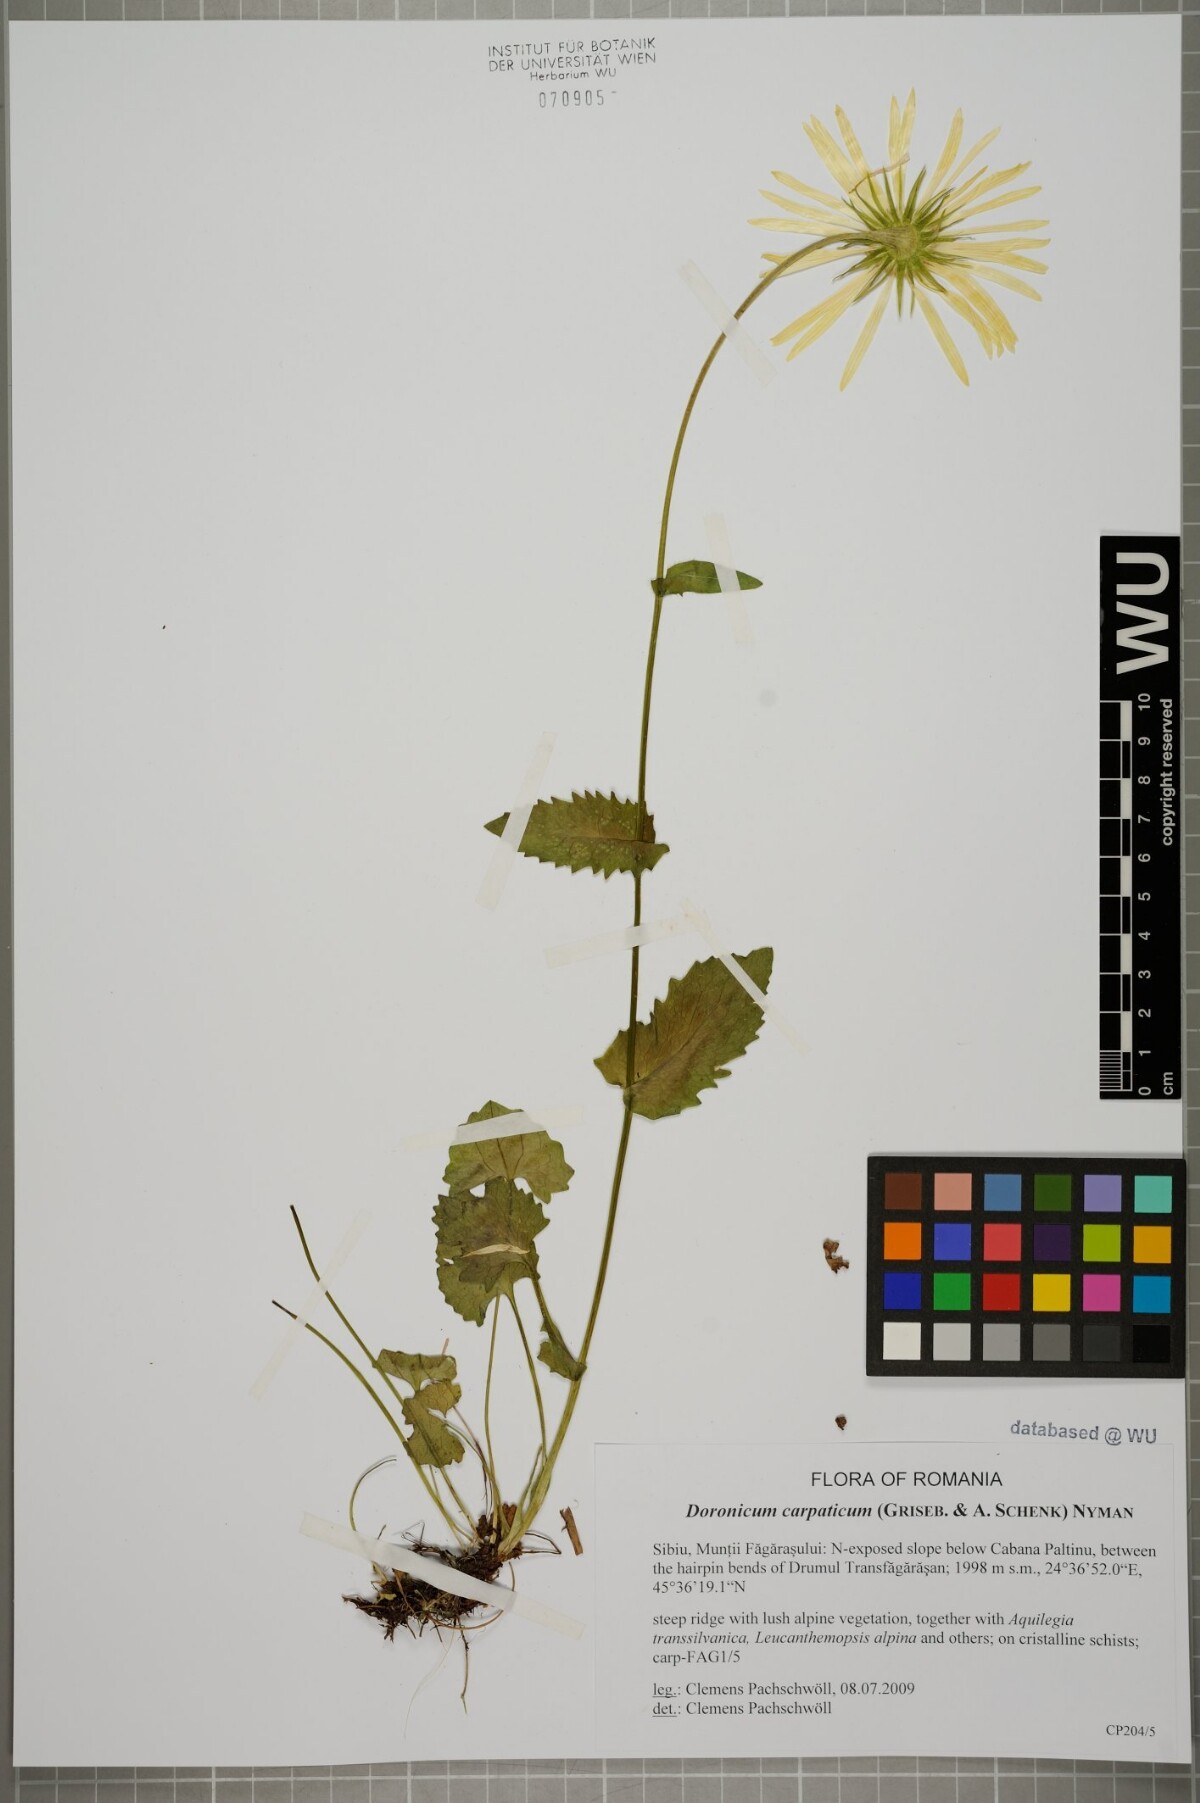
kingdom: Plantae
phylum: Tracheophyta
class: Magnoliopsida
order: Asterales
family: Asteraceae
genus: Doronicum
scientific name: Doronicum carpaticum
